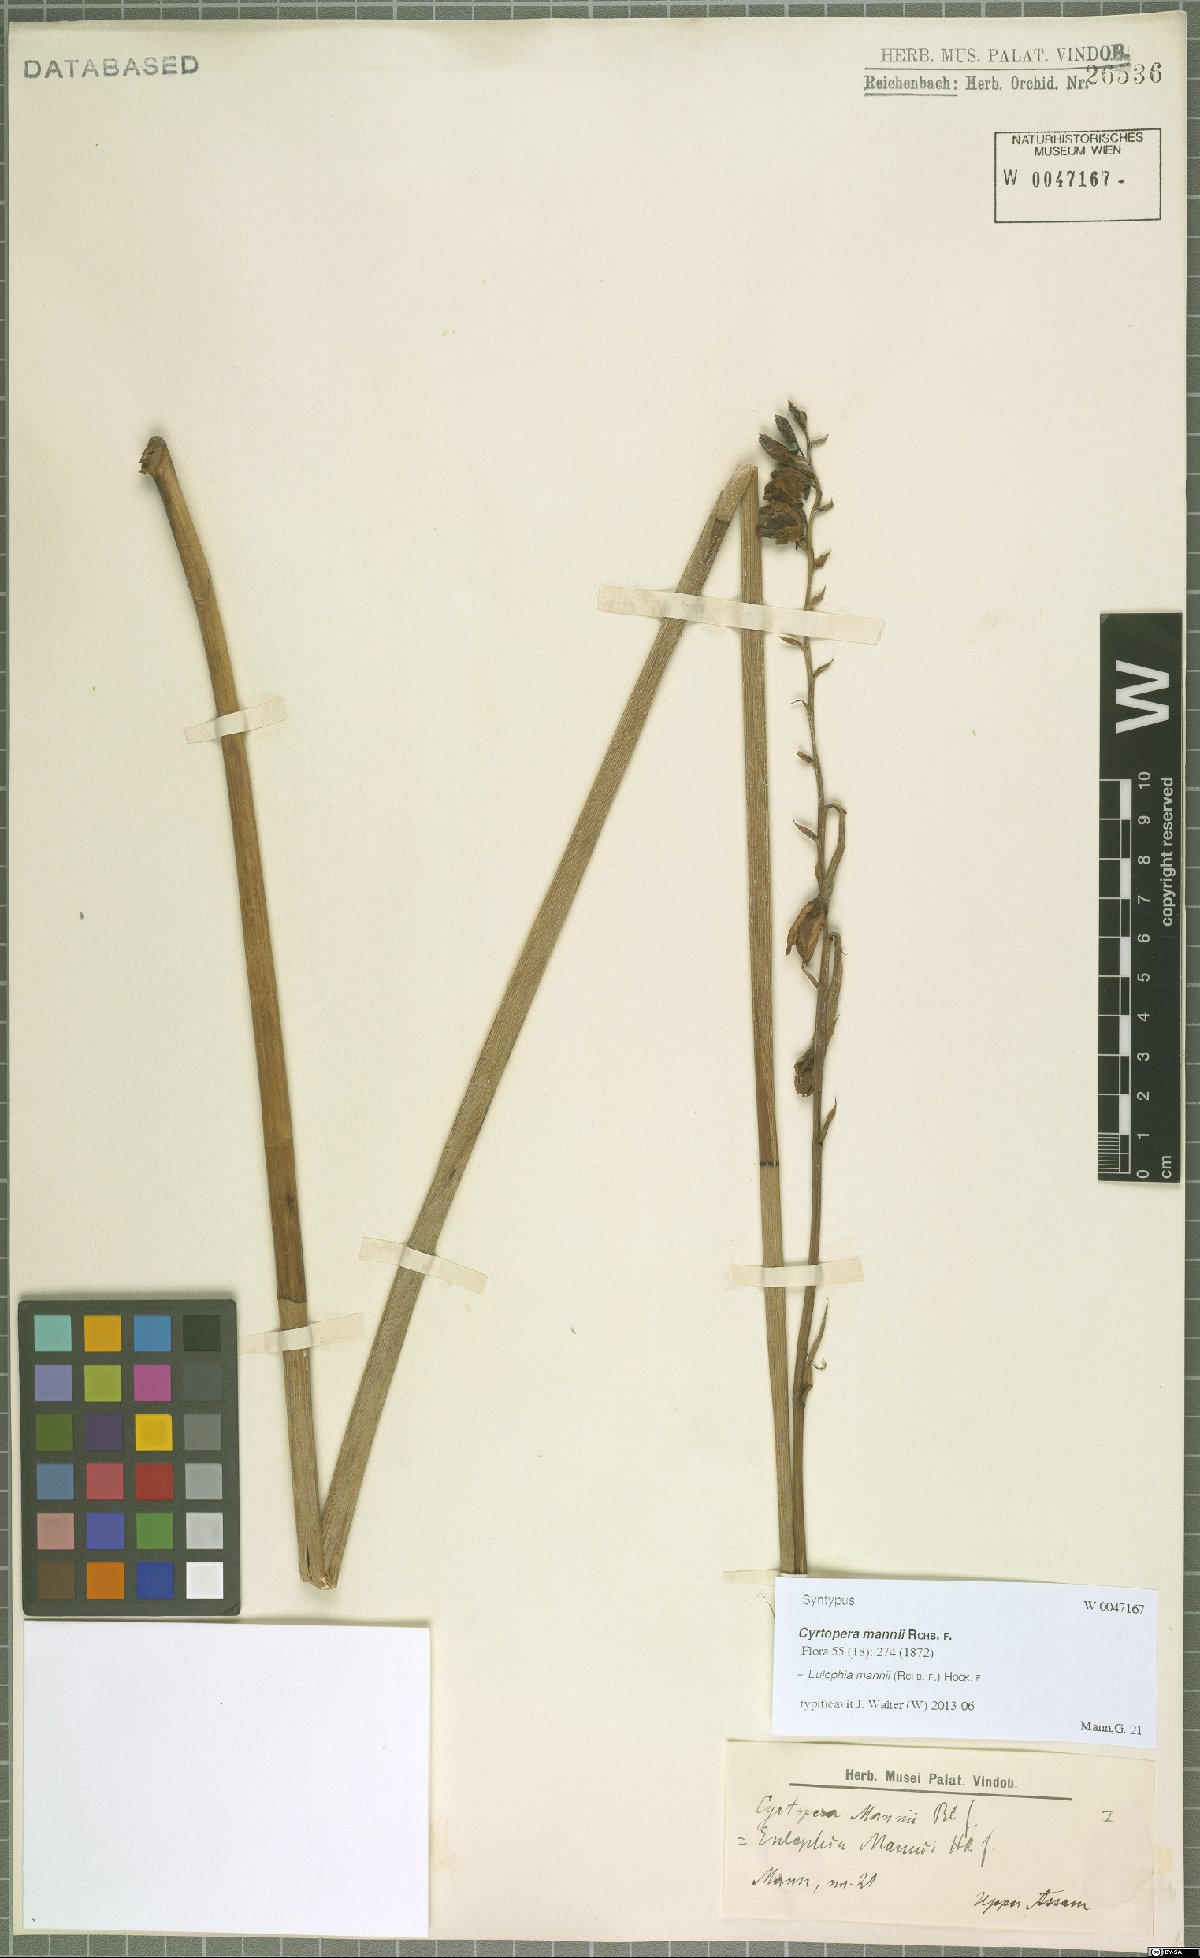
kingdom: Plantae
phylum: Tracheophyta
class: Liliopsida
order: Asparagales
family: Orchidaceae
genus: Eulophia
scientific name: Eulophia mannii
